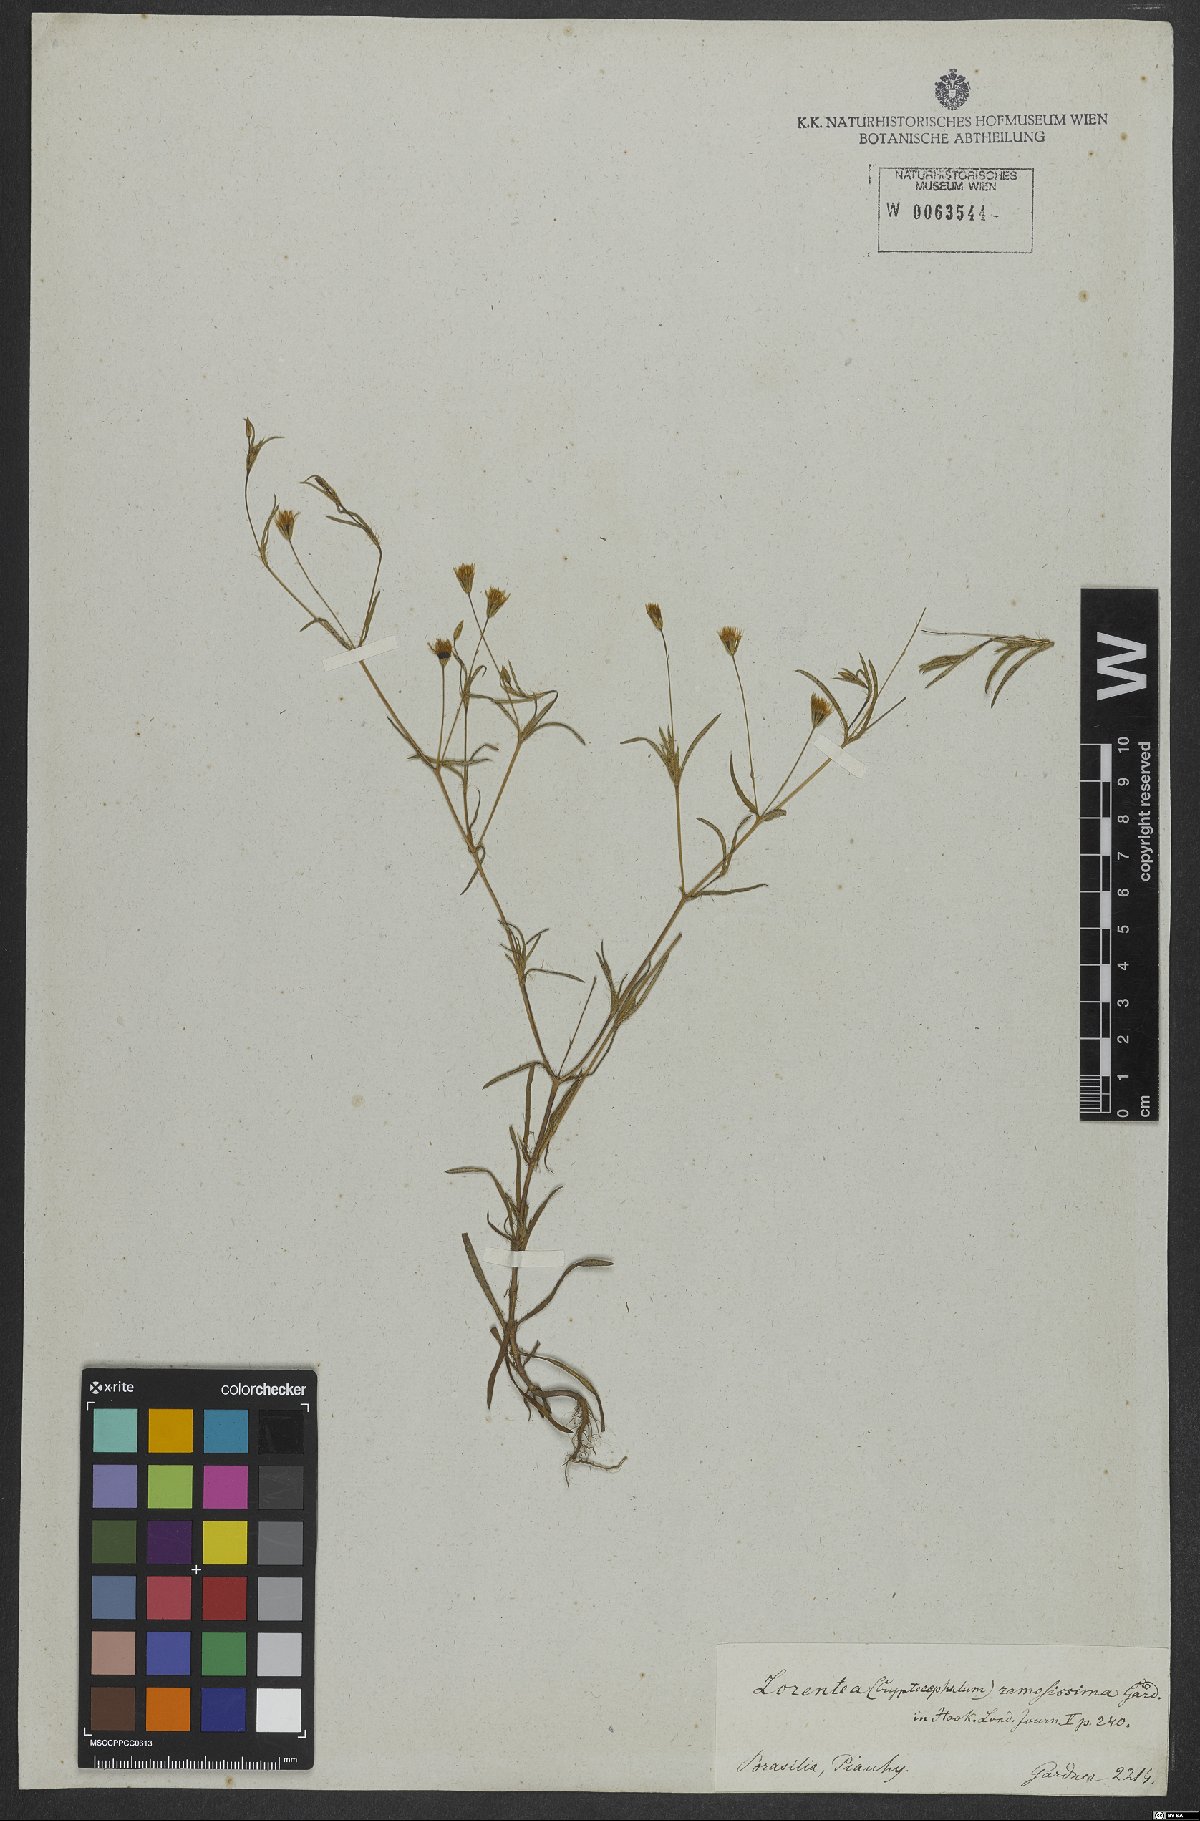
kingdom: Plantae
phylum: Tracheophyta
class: Magnoliopsida
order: Asterales
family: Asteraceae
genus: Pectis
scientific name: Pectis oligocephala
